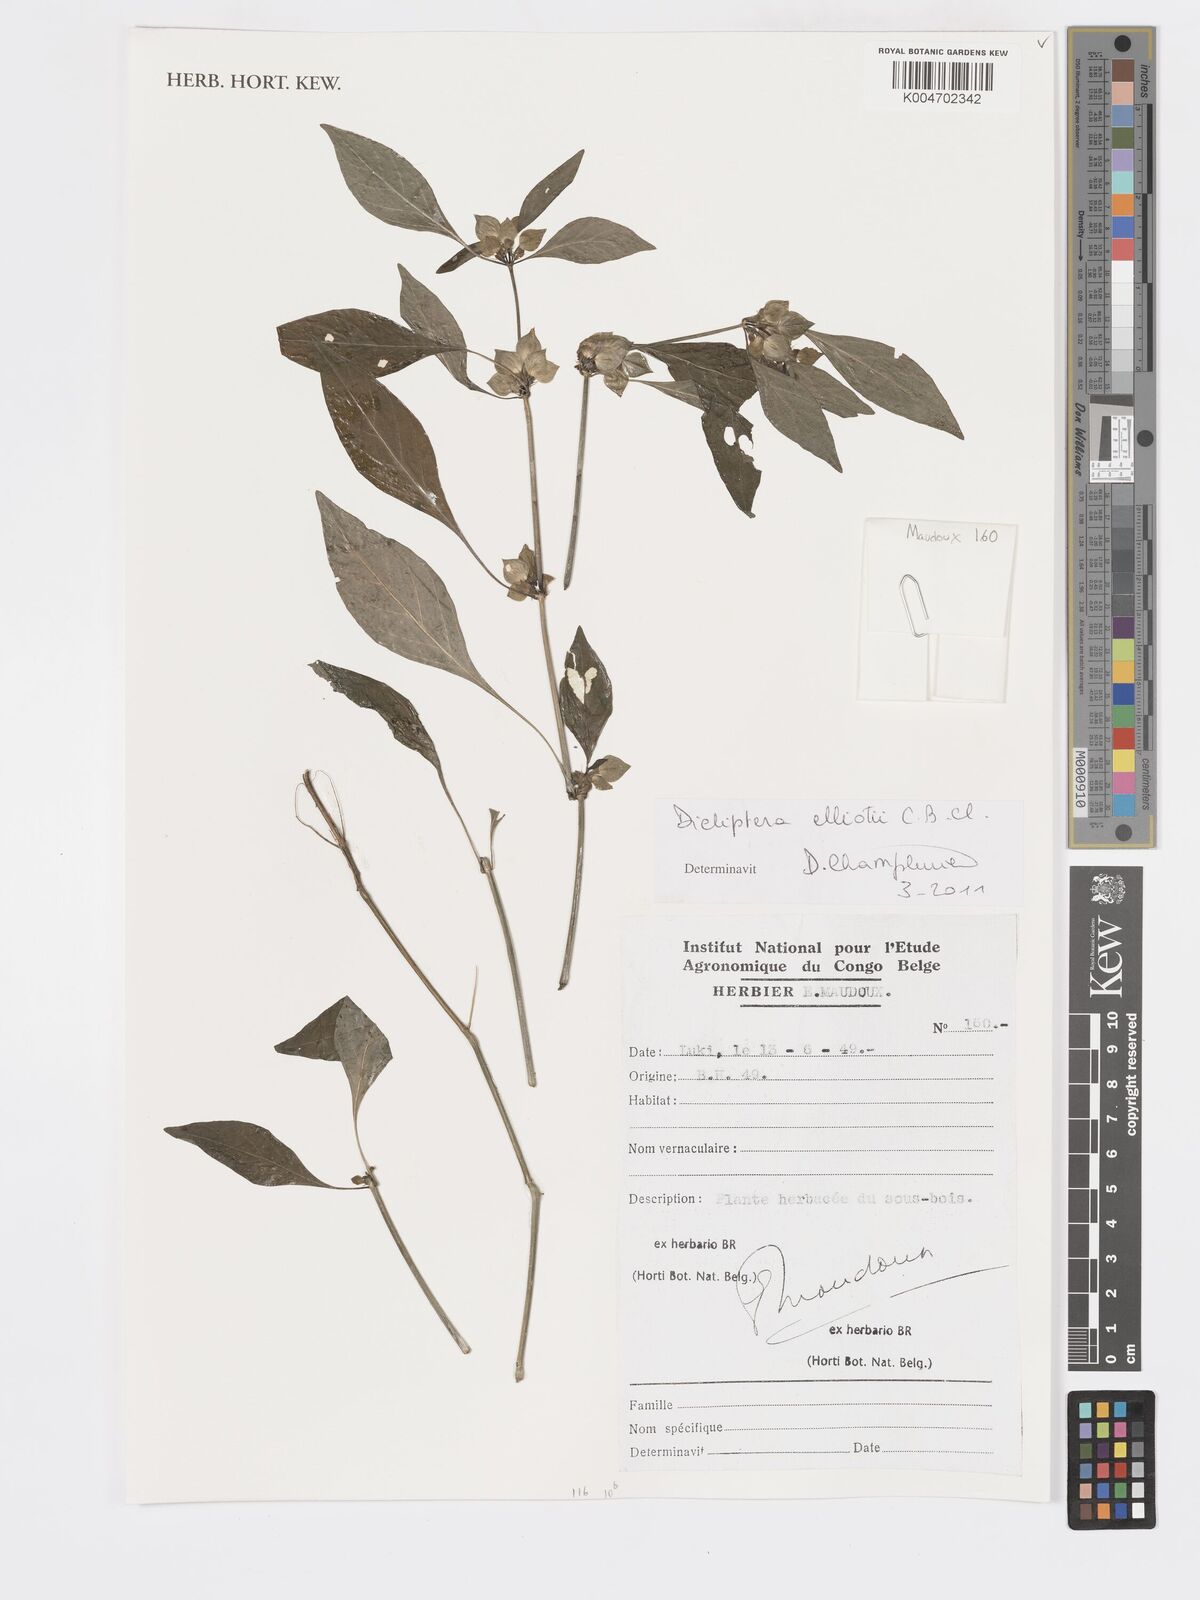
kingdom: Plantae
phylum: Tracheophyta
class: Magnoliopsida
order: Lamiales
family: Acanthaceae
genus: Dicliptera
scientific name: Dicliptera elliotii
